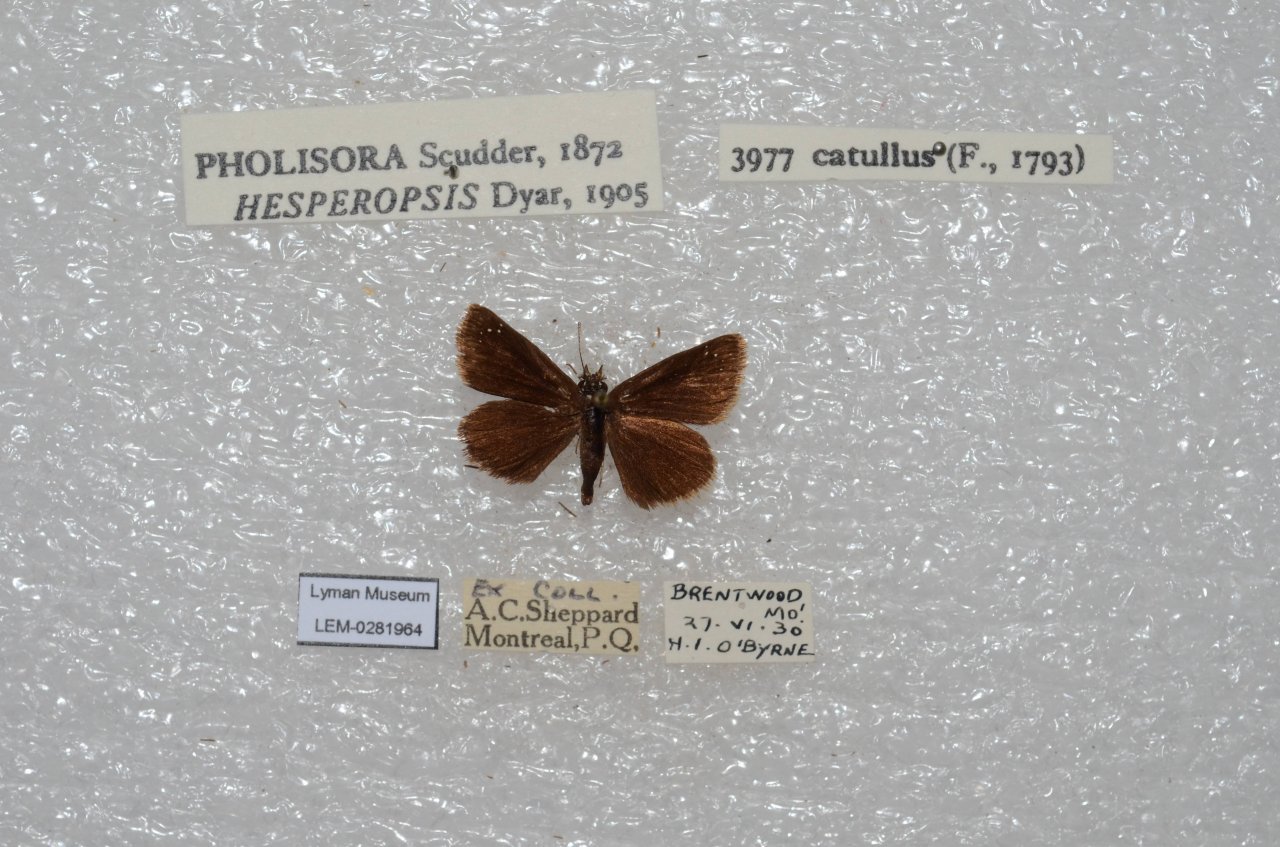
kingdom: Animalia
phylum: Arthropoda
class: Insecta
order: Lepidoptera
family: Hesperiidae
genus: Pholisora
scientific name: Pholisora catullus
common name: Common Sootywing
